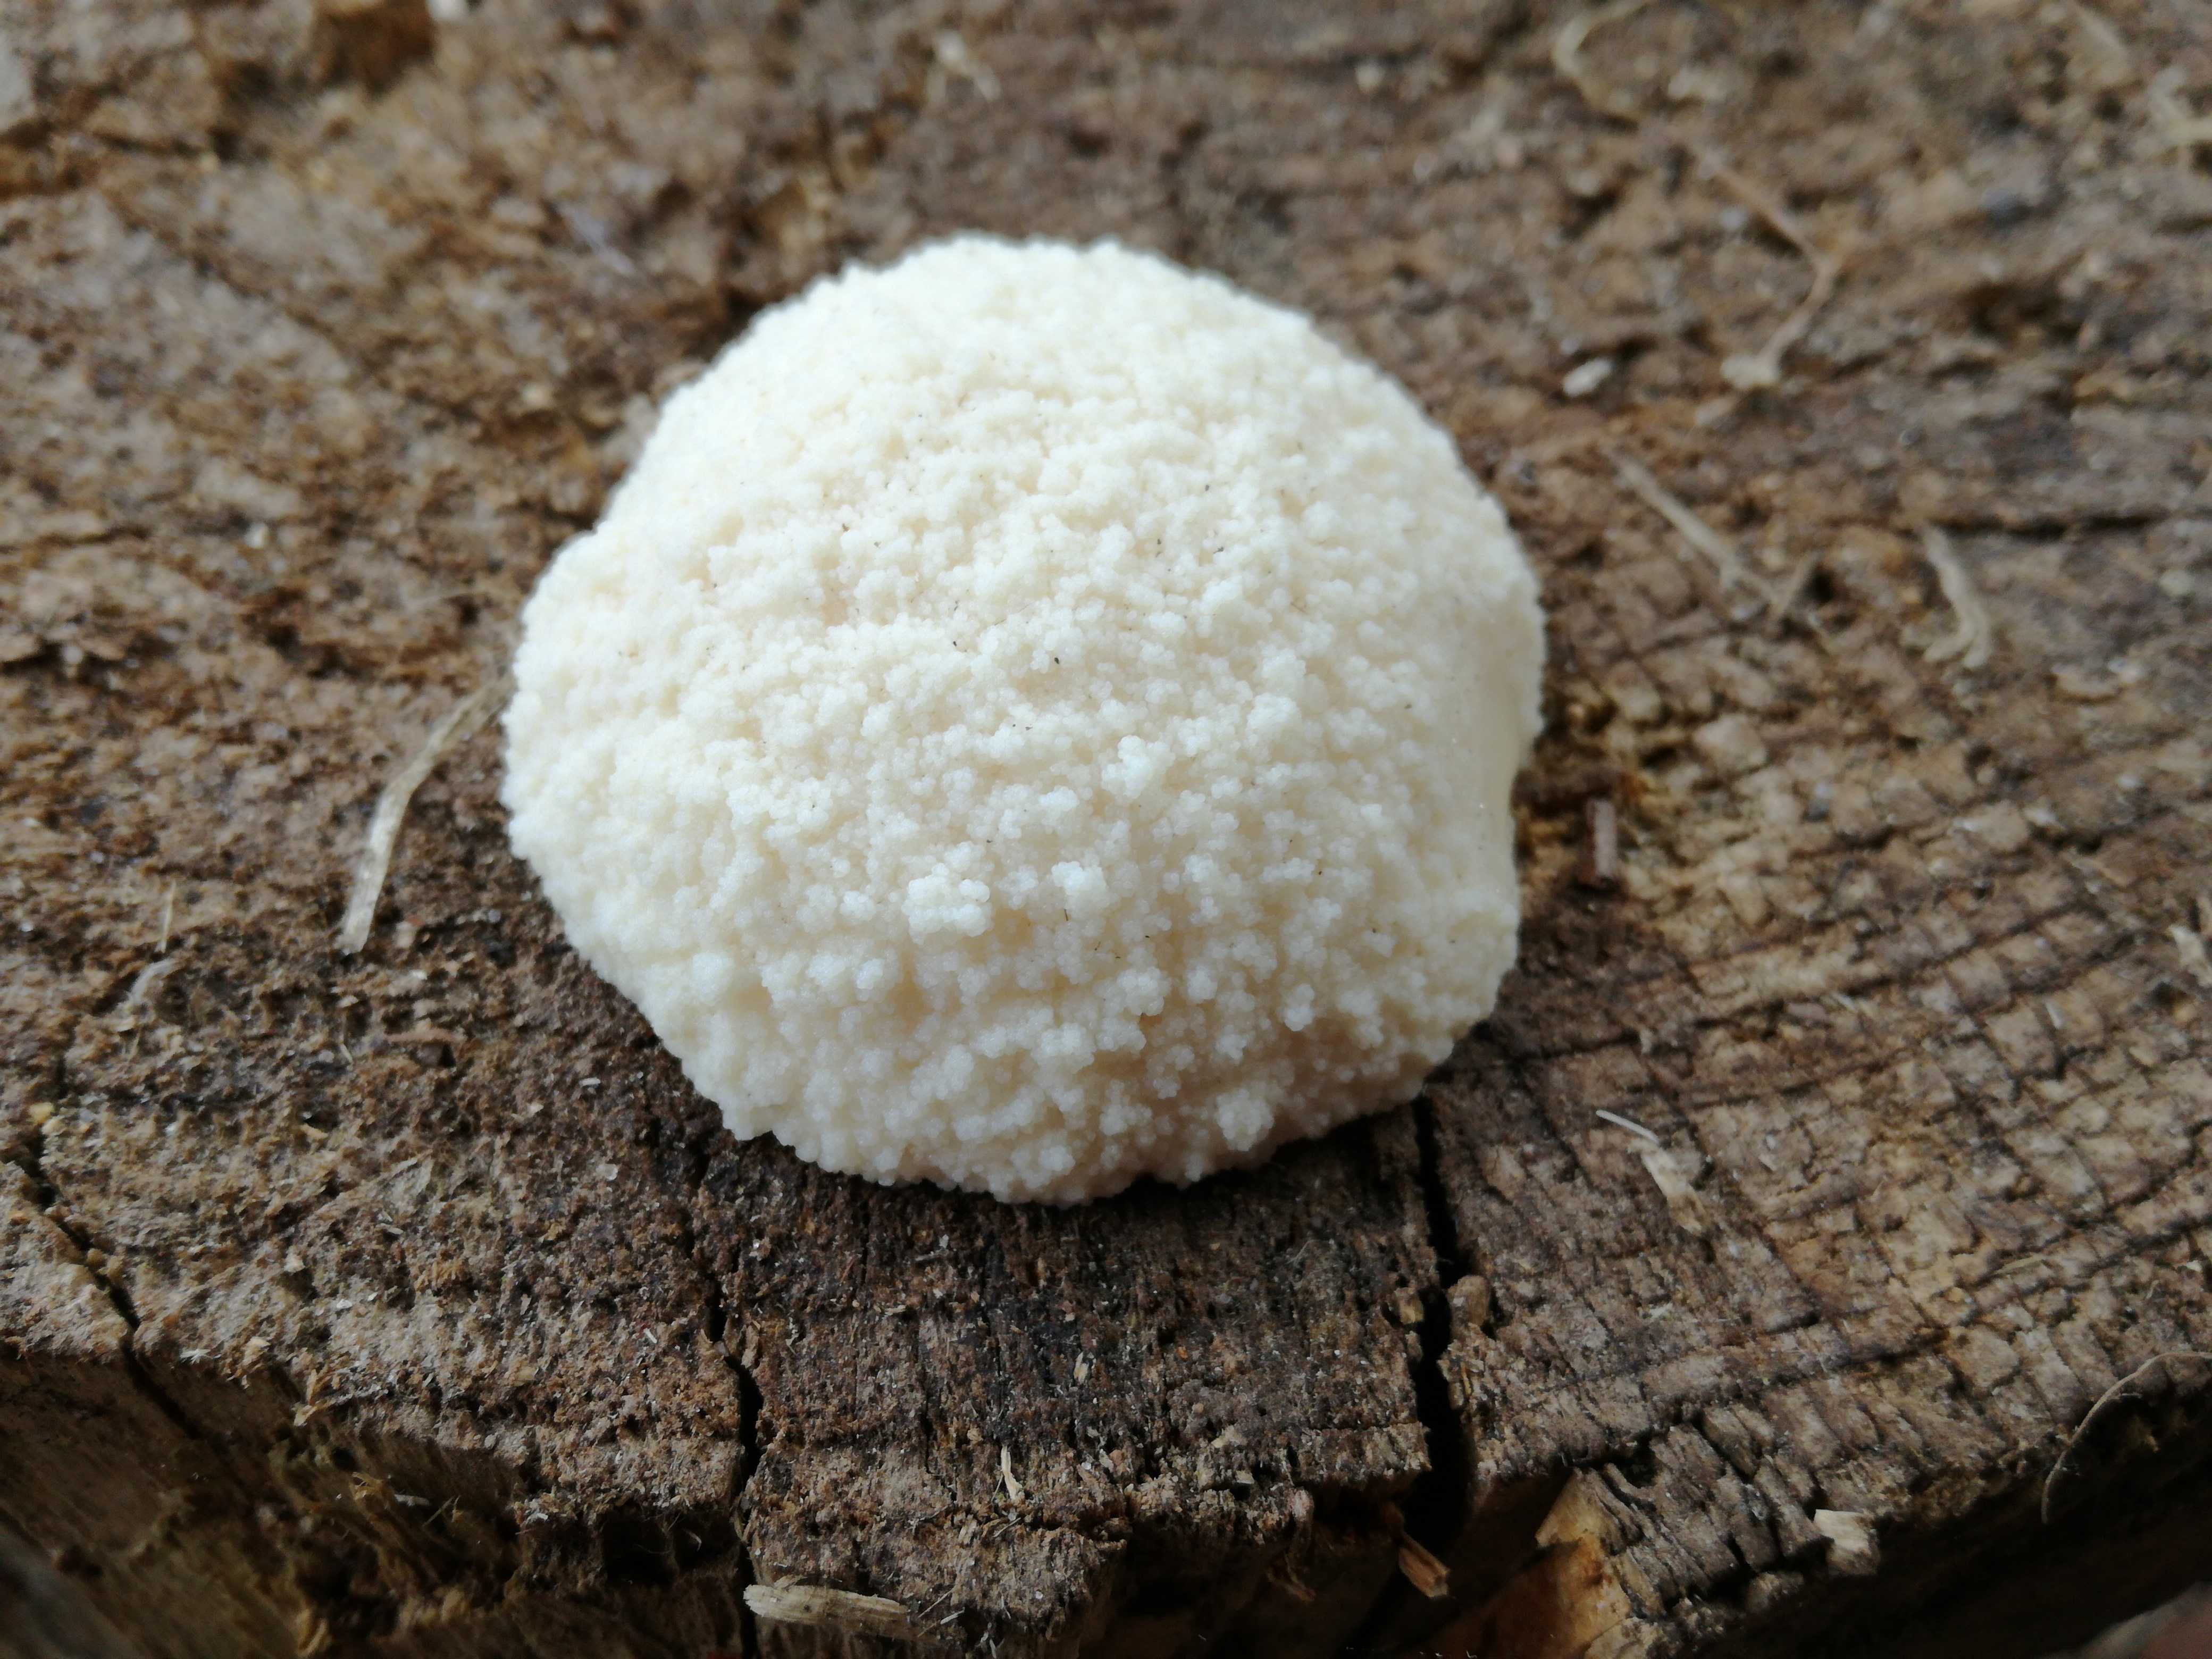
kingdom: Protozoa
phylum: Mycetozoa
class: Myxomycetes
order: Cribrariales
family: Tubiferaceae
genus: Reticularia
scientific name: Reticularia lycoperdon
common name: skinnende støvpude
